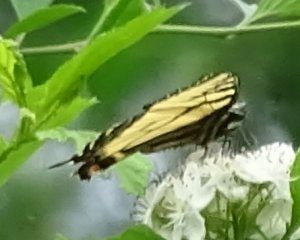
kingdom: Animalia
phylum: Arthropoda
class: Insecta
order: Lepidoptera
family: Papilionidae
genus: Pterourus
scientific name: Pterourus canadensis
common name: Canadian Tiger Swallowtail
